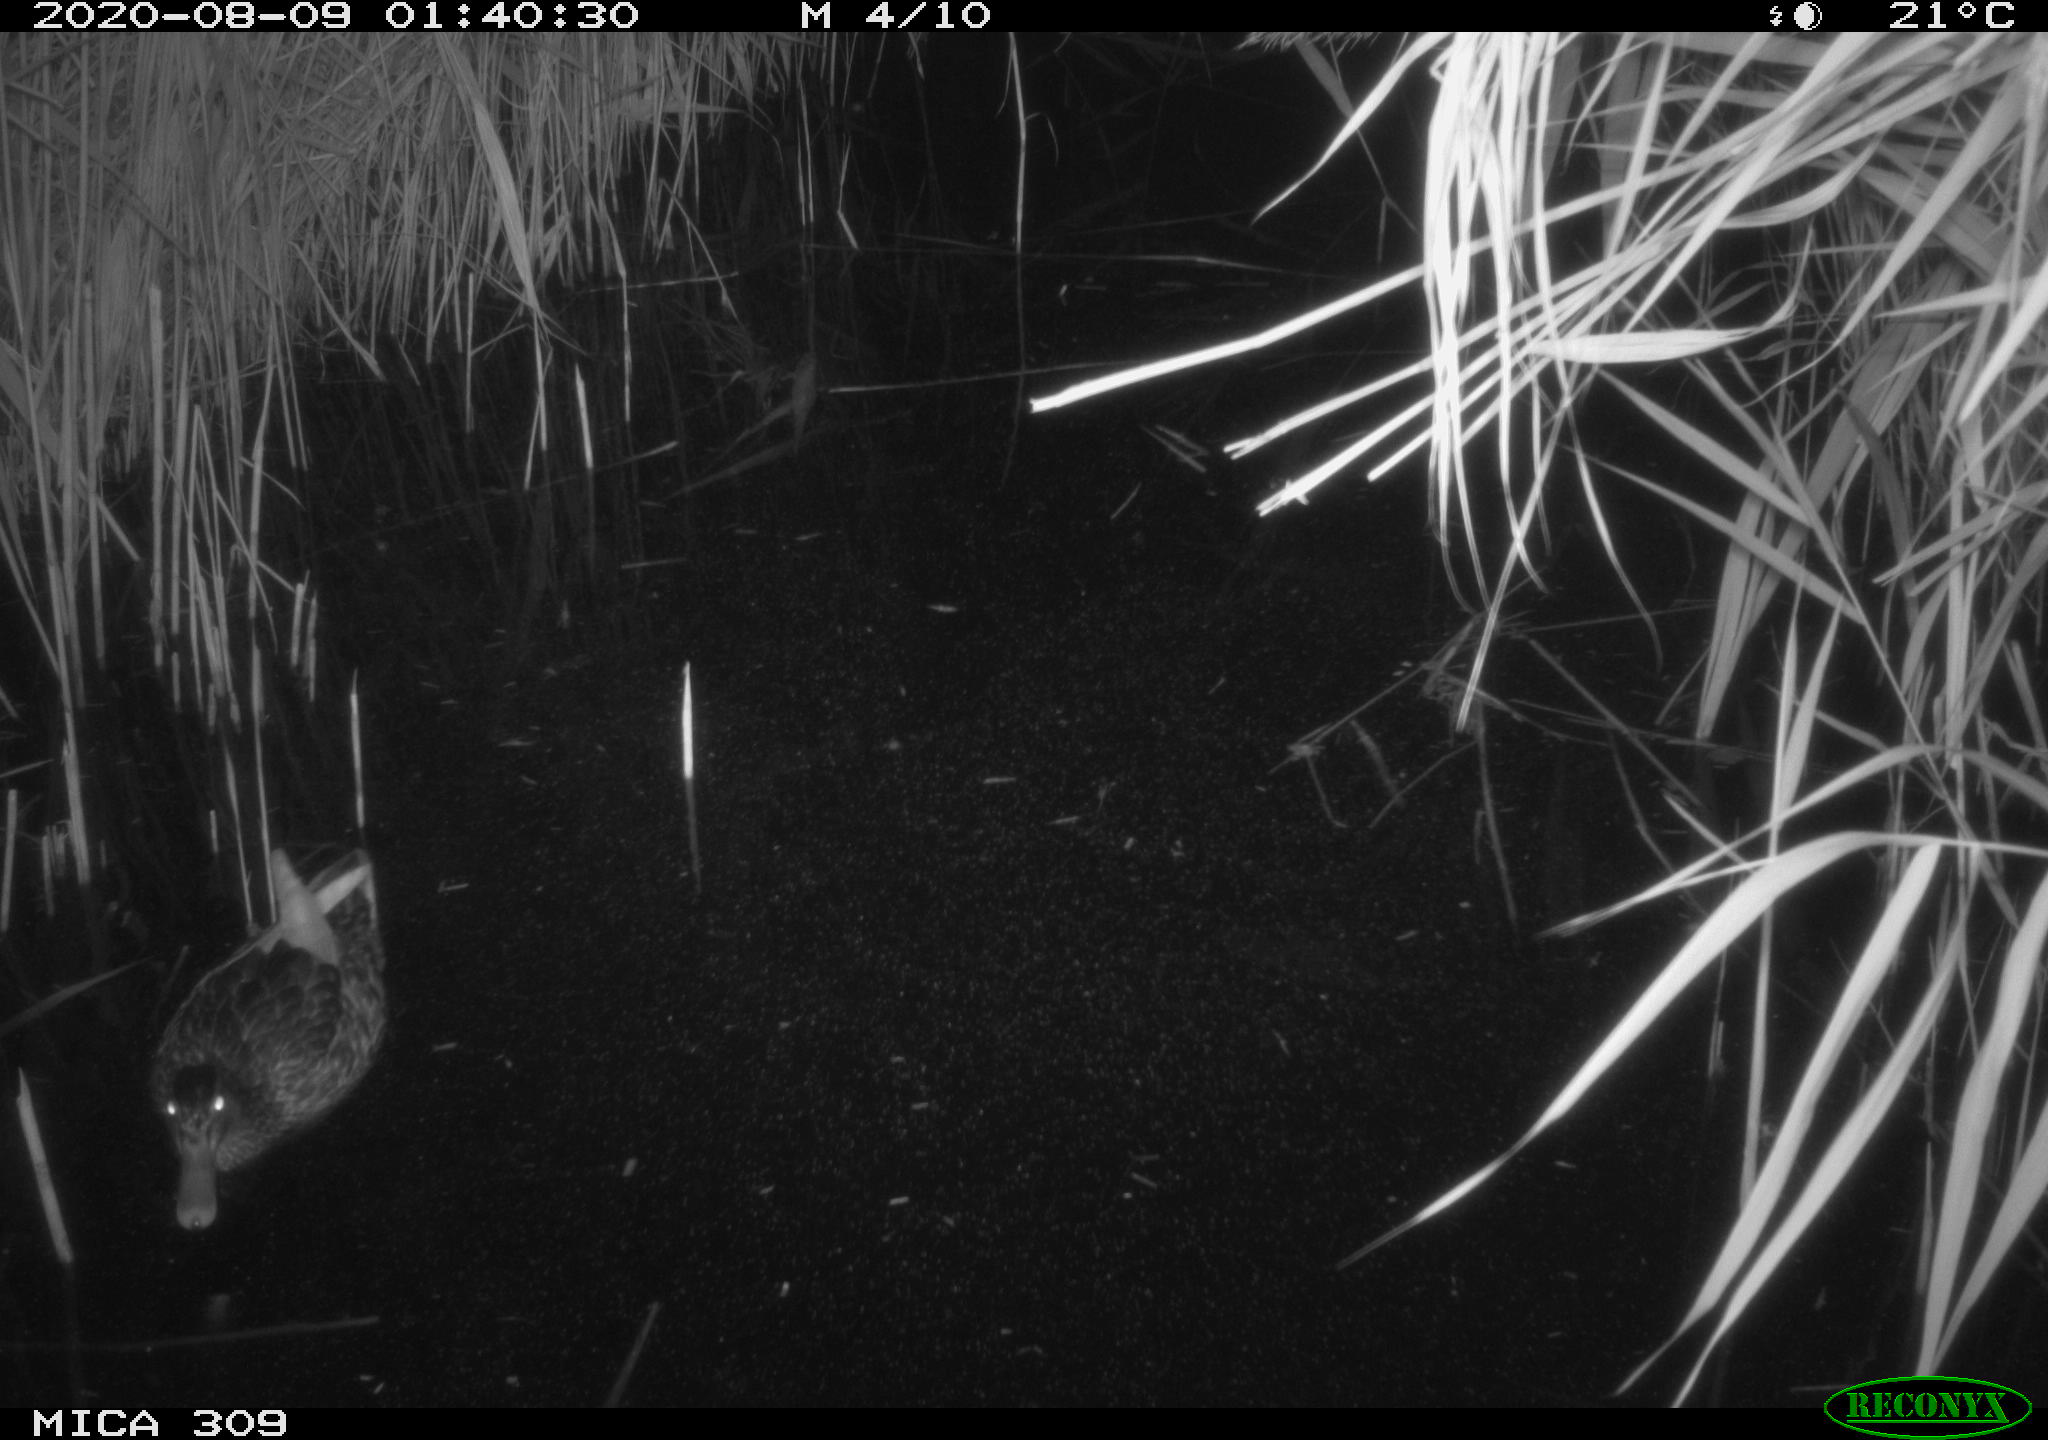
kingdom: Animalia
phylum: Chordata
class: Aves
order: Anseriformes
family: Anatidae
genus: Anas
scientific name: Anas platyrhynchos
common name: Mallard
